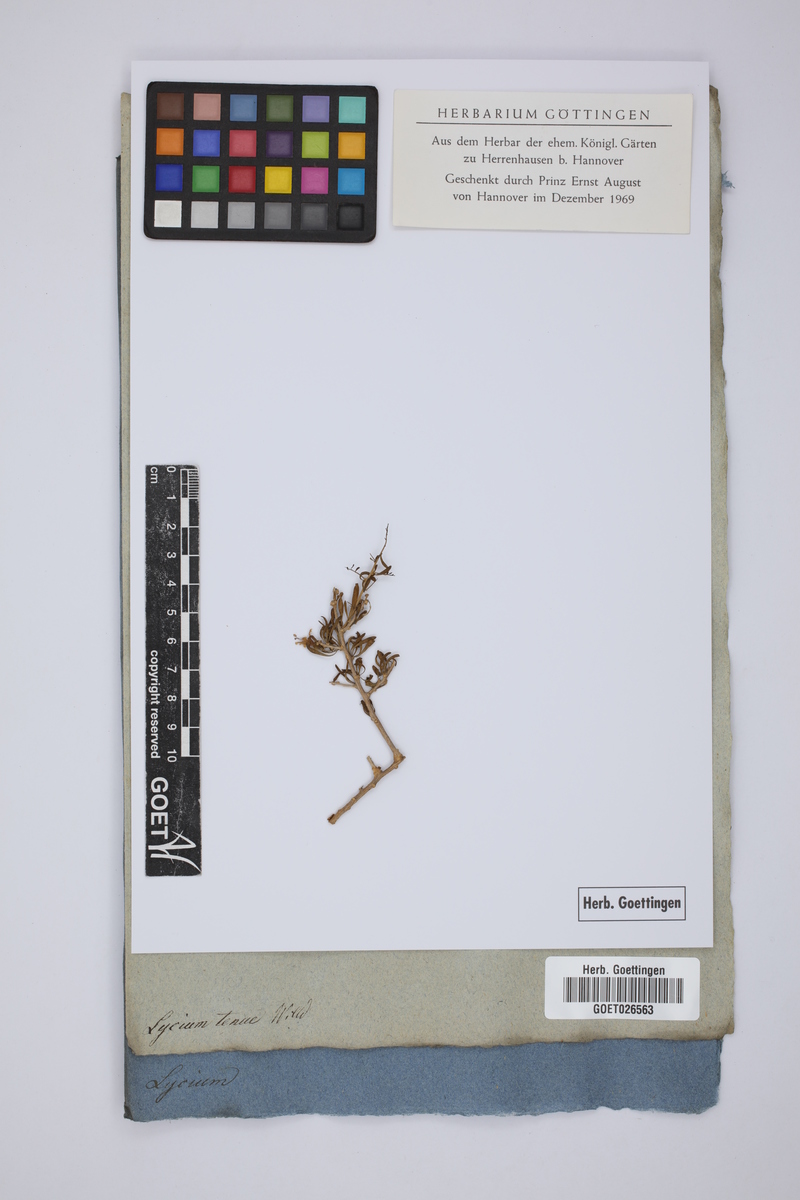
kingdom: Plantae
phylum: Tracheophyta
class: Magnoliopsida
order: Solanales
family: Solanaceae
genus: Lycium
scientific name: Lycium acutifolium
